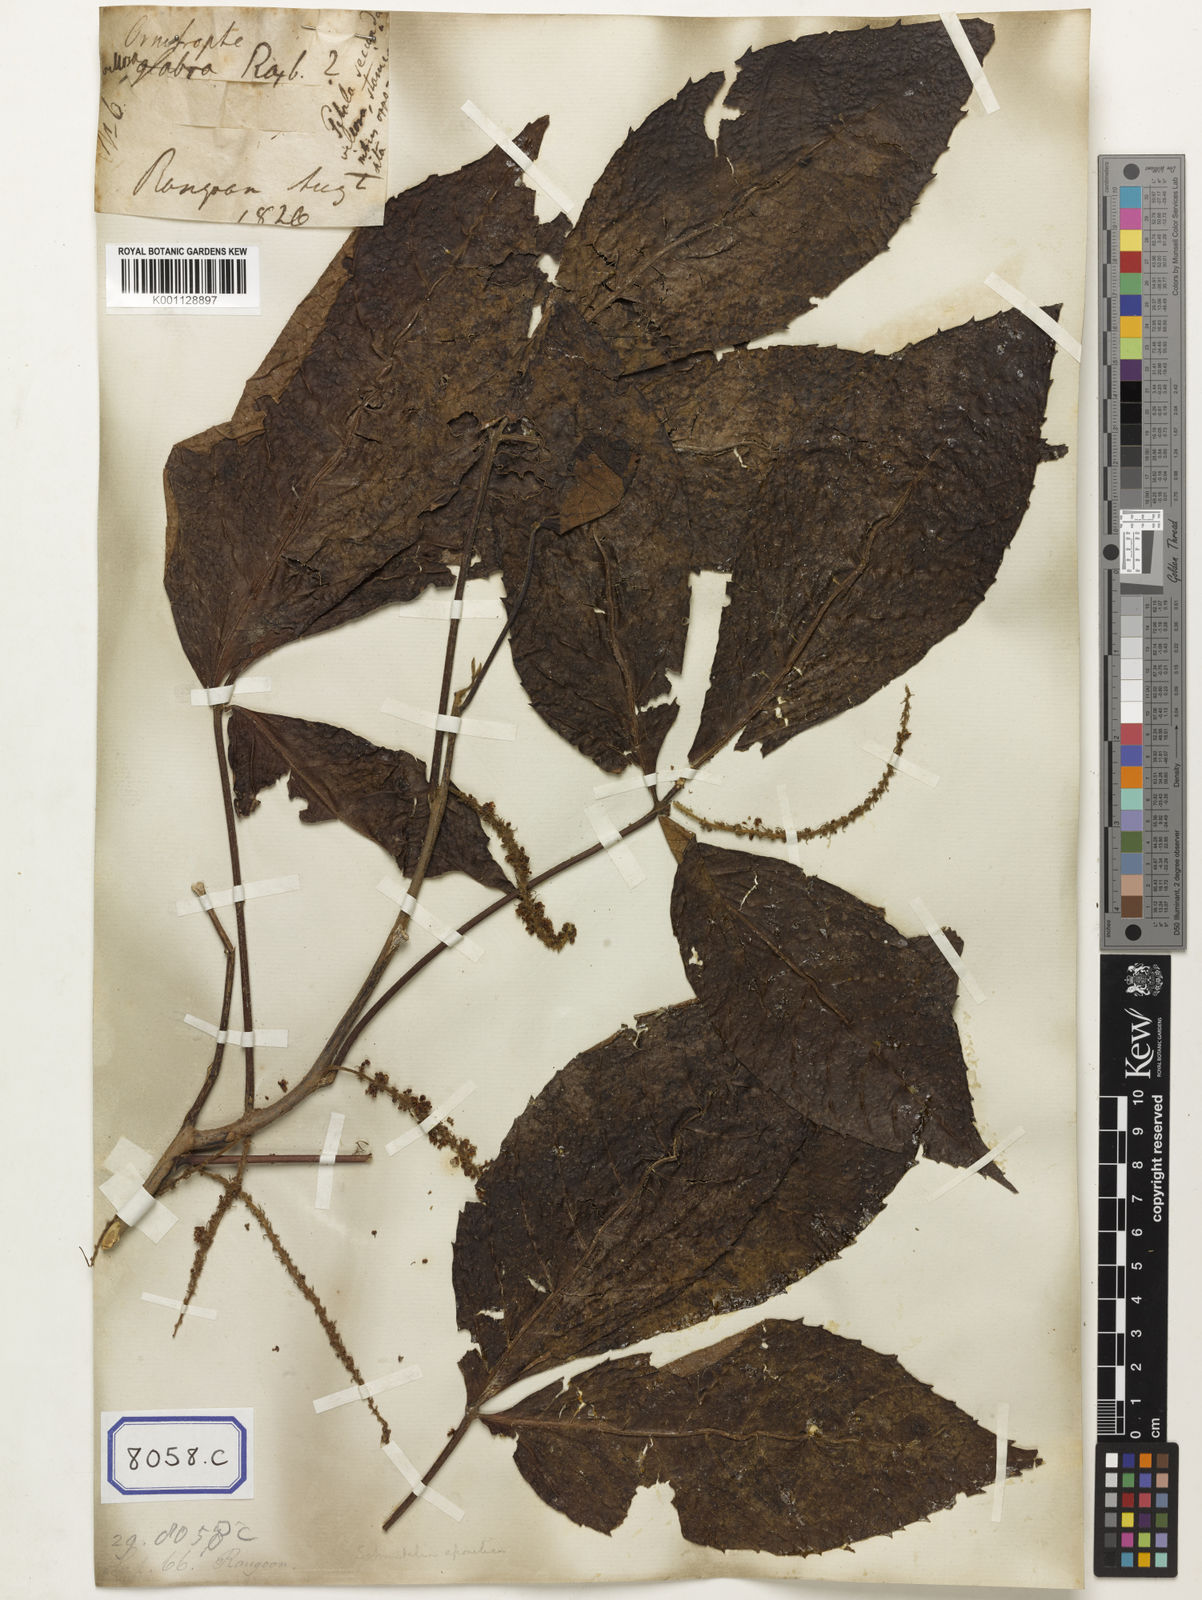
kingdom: Plantae
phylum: Tracheophyta
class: Magnoliopsida
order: Malpighiales
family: Calophyllaceae
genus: Calophyllum
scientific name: Calophyllum
